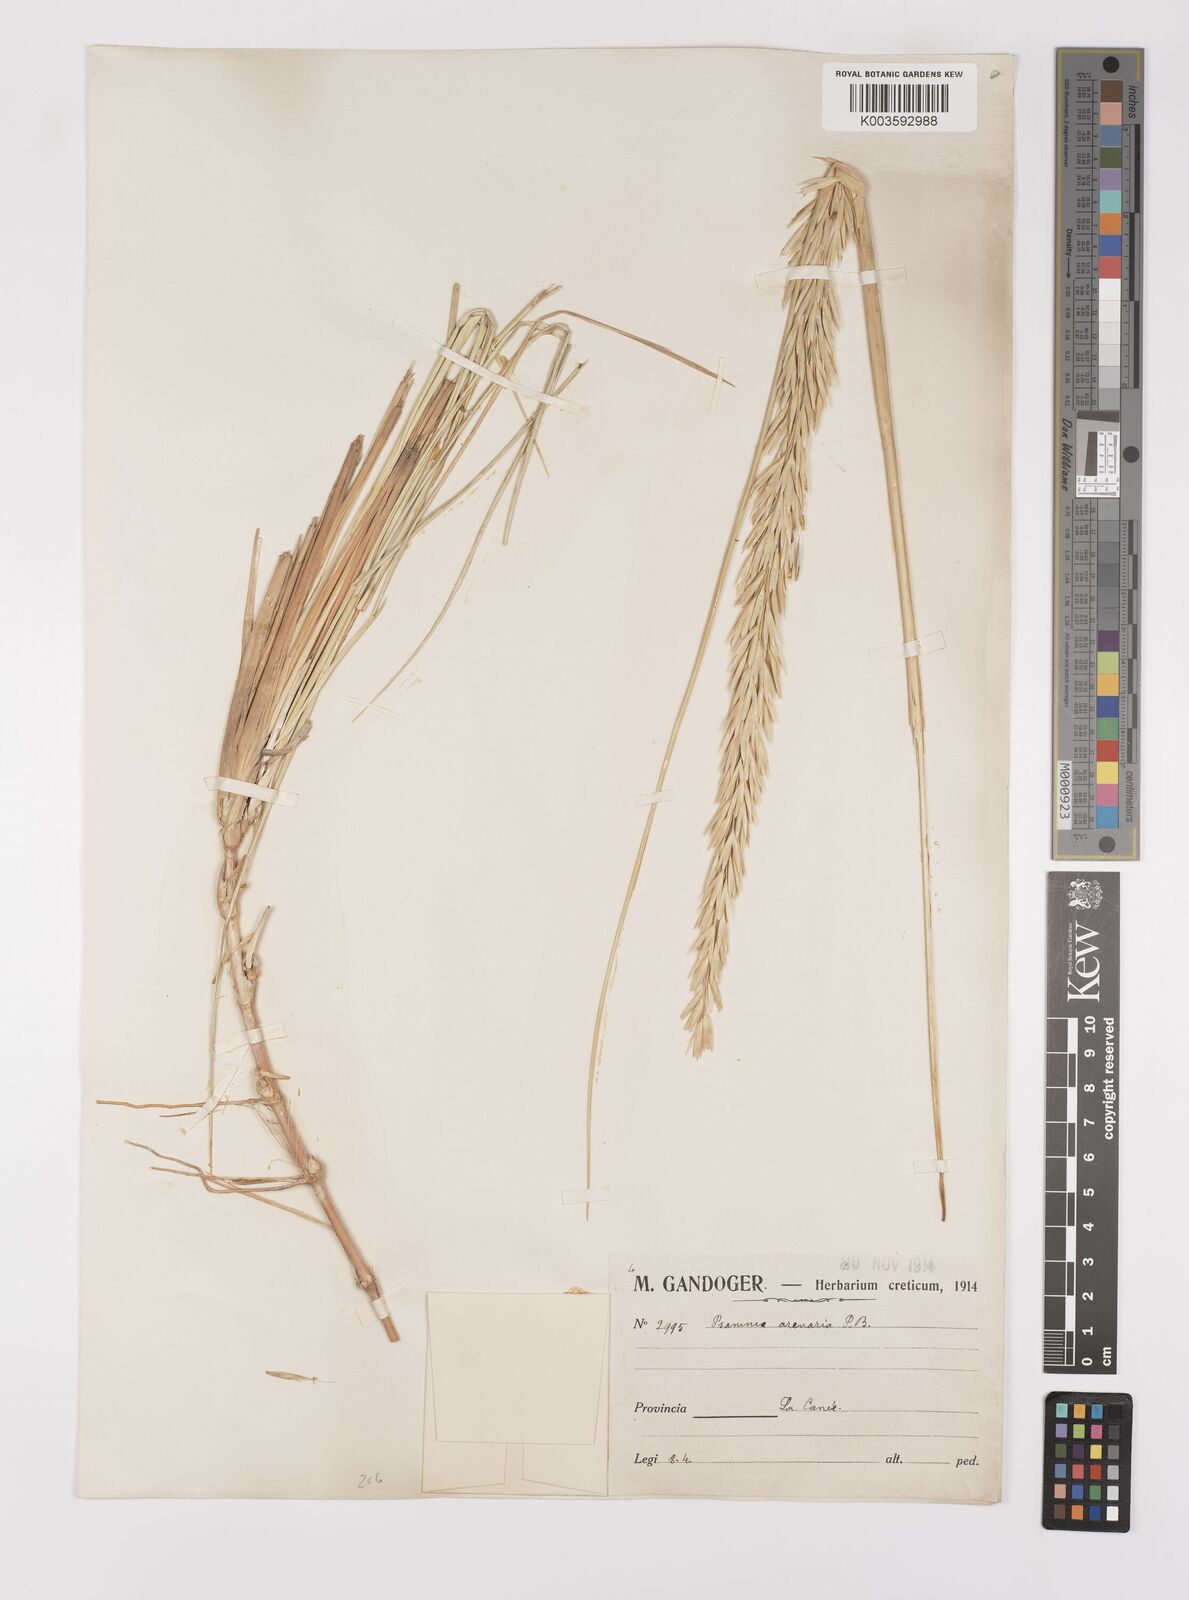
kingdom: Plantae
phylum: Tracheophyta
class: Liliopsida
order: Poales
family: Poaceae
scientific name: Poaceae
